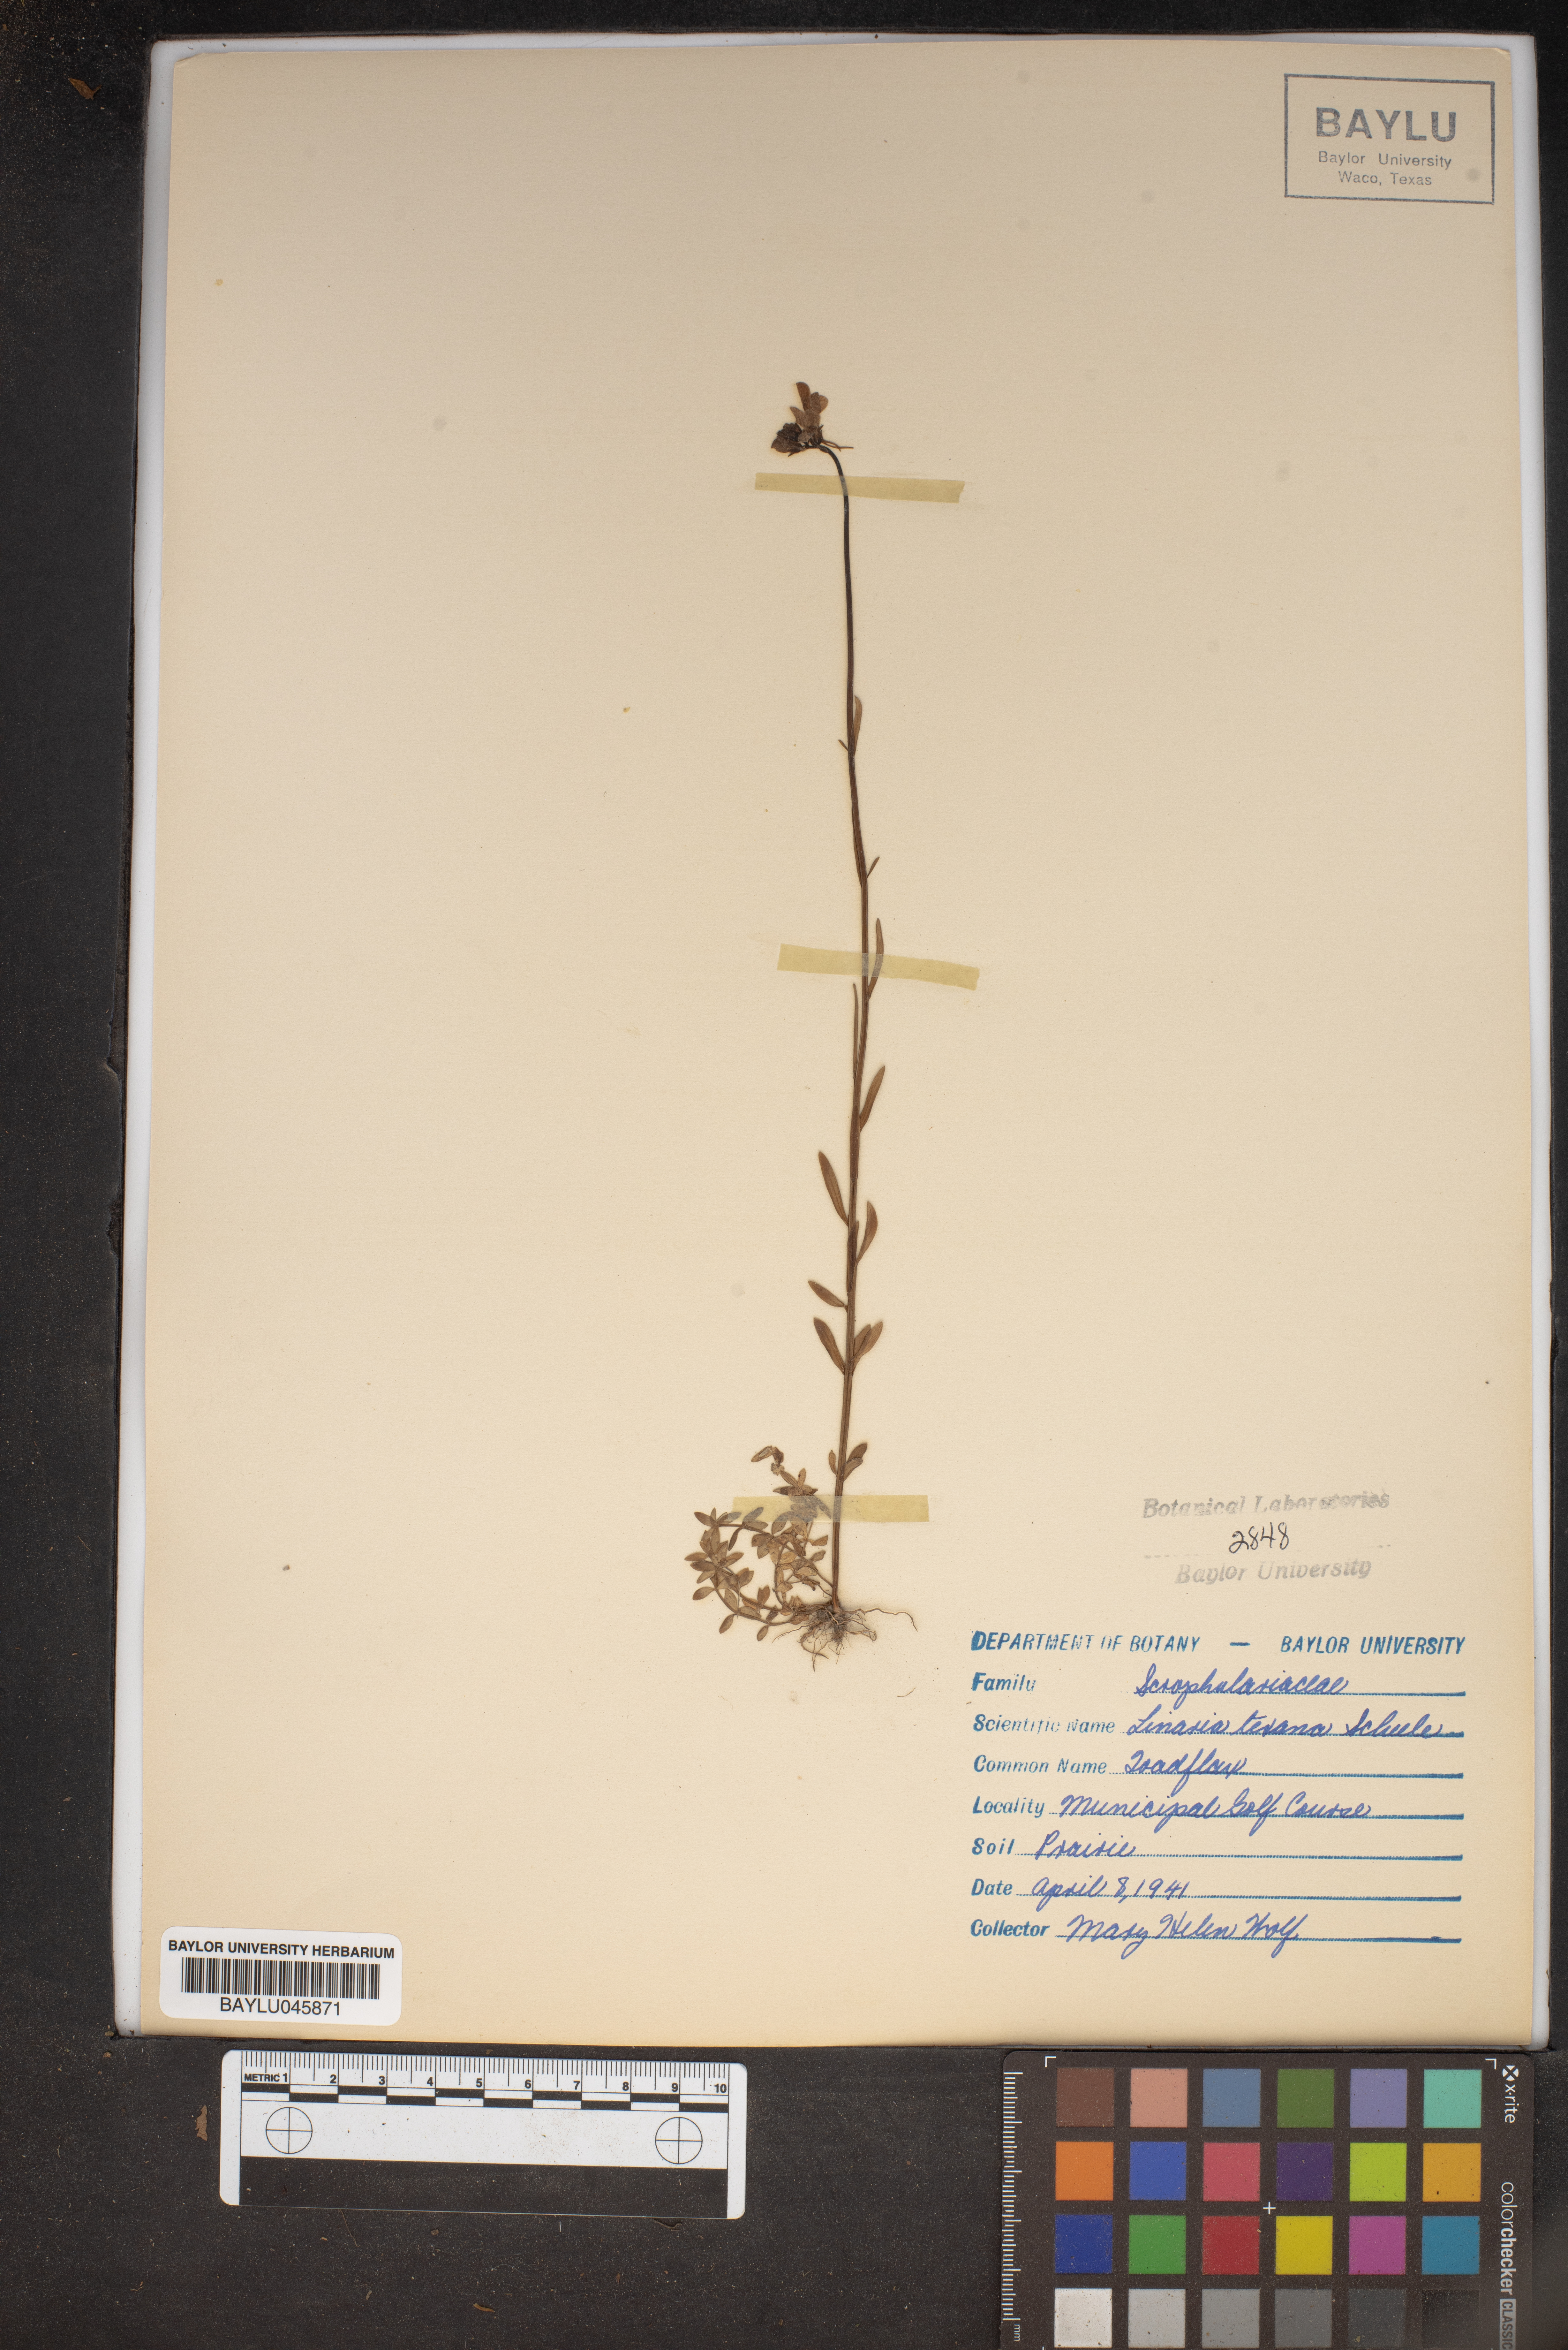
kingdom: Plantae
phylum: Tracheophyta
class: Magnoliopsida
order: Lamiales
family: Plantaginaceae
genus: Nuttallanthus
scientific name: Nuttallanthus texanus
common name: Texas toadflax
